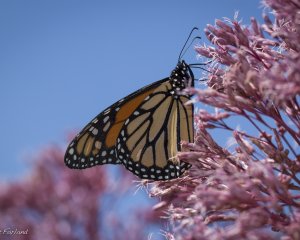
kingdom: Animalia
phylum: Arthropoda
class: Insecta
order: Lepidoptera
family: Nymphalidae
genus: Danaus
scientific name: Danaus plexippus
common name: Monarch
